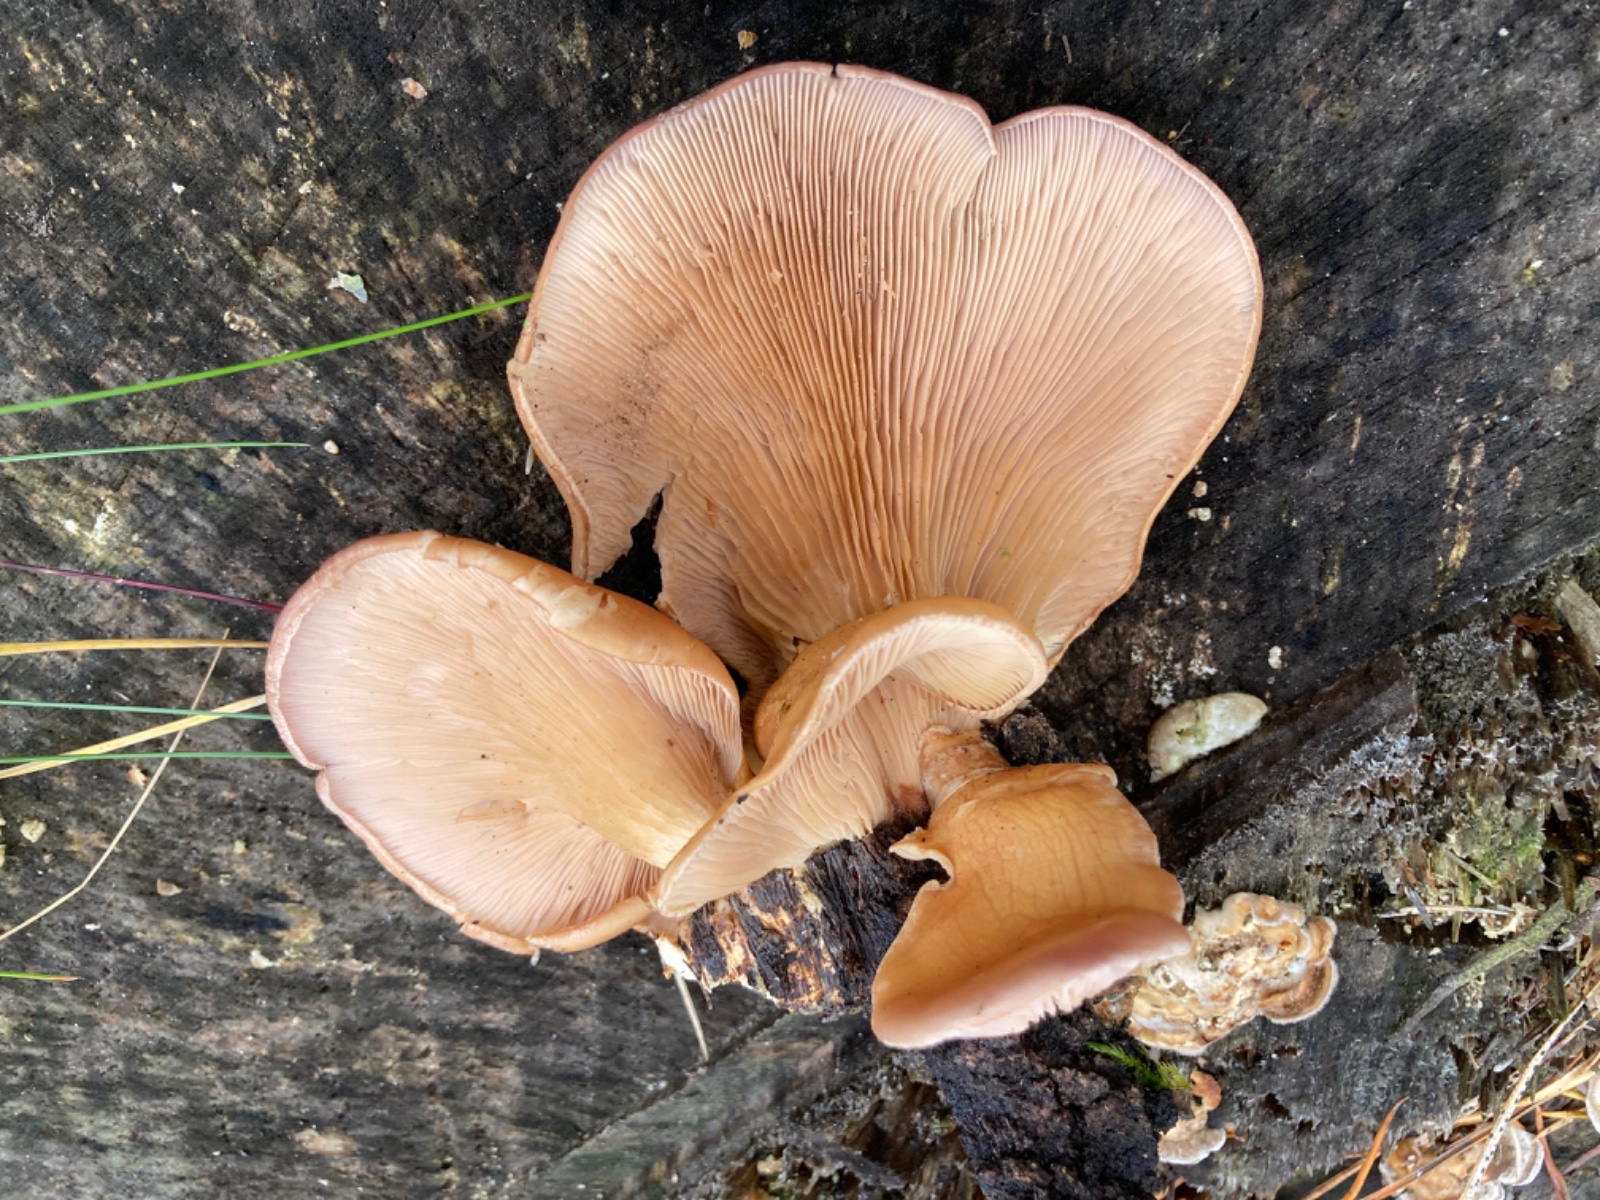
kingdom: Fungi
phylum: Basidiomycota
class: Agaricomycetes
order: Agaricales
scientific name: Agaricales
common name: champignonordenen
